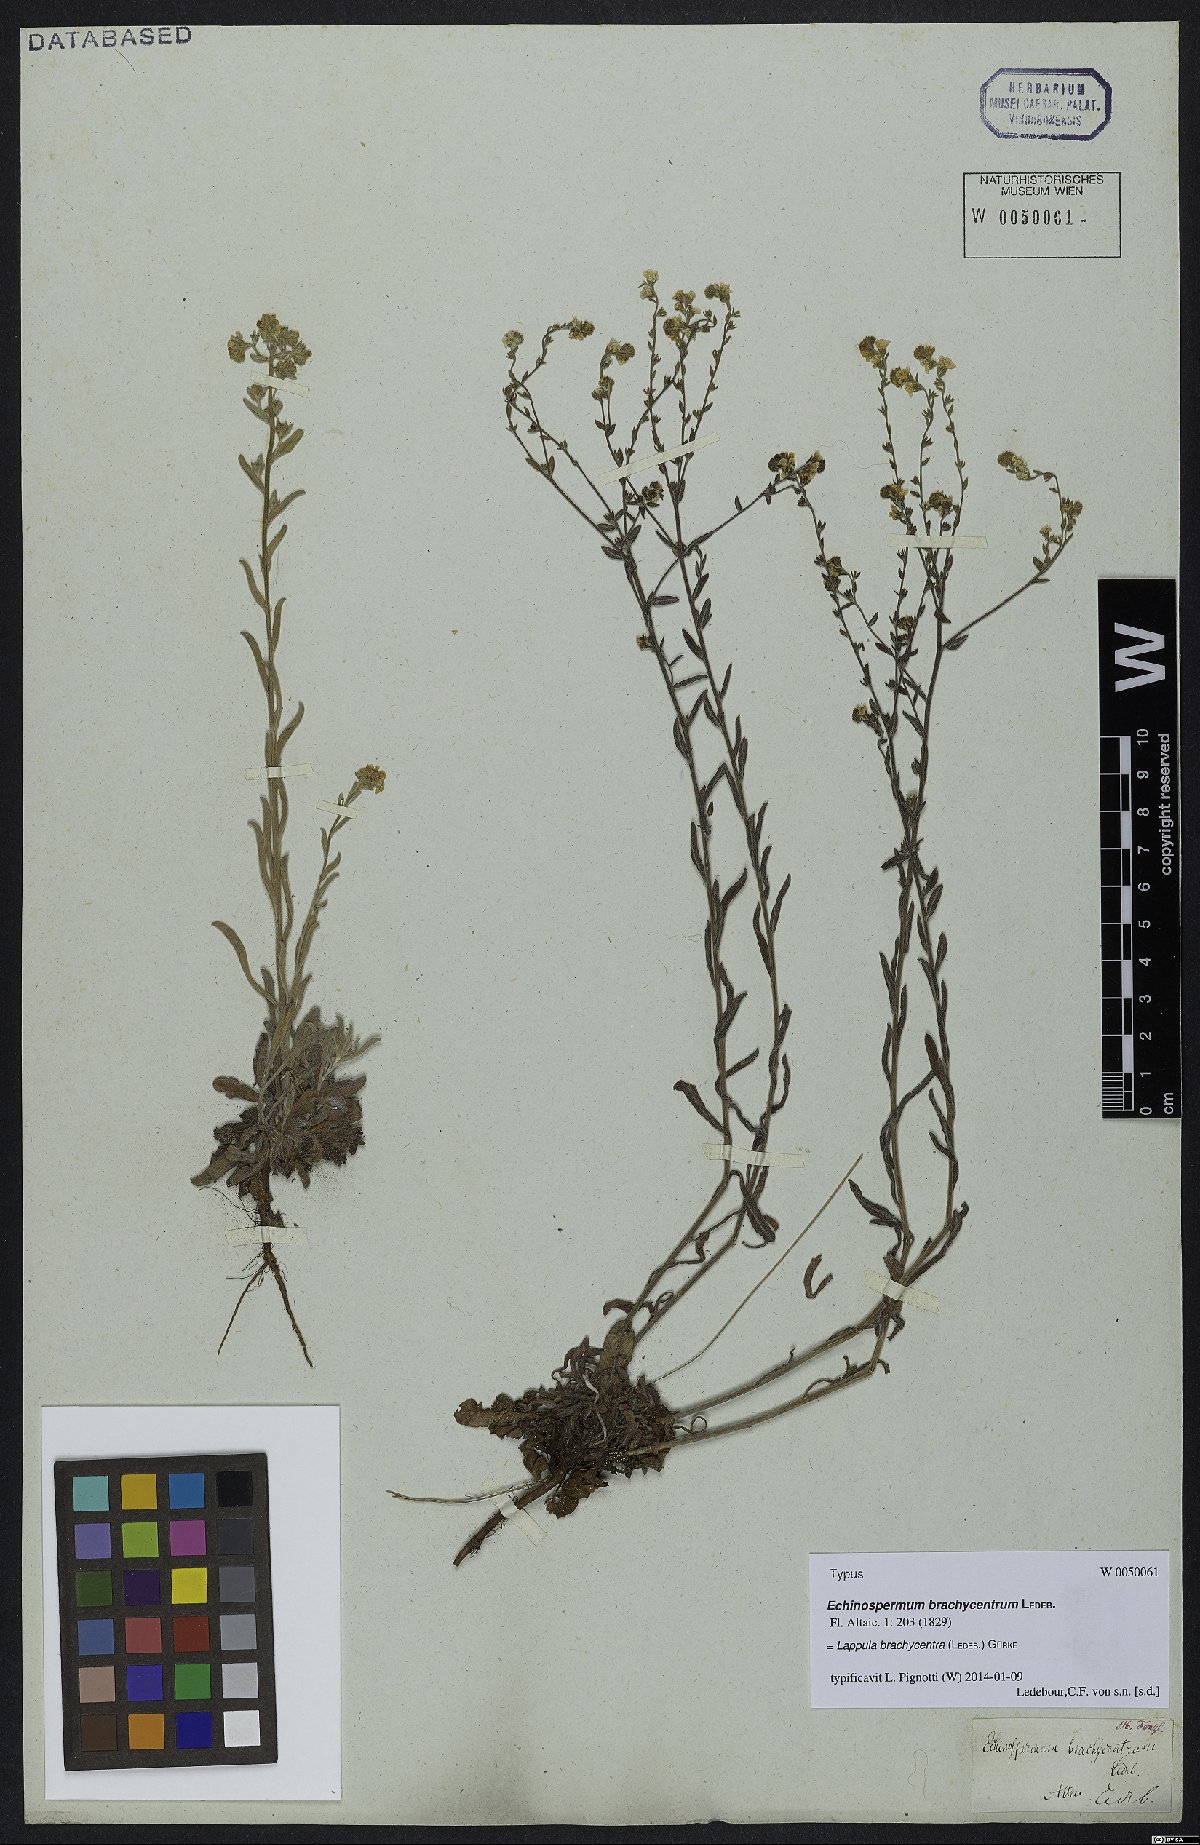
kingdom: Plantae
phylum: Tracheophyta
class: Magnoliopsida
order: Boraginales
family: Boraginaceae
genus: Lappula
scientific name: Lappula brachycentra
